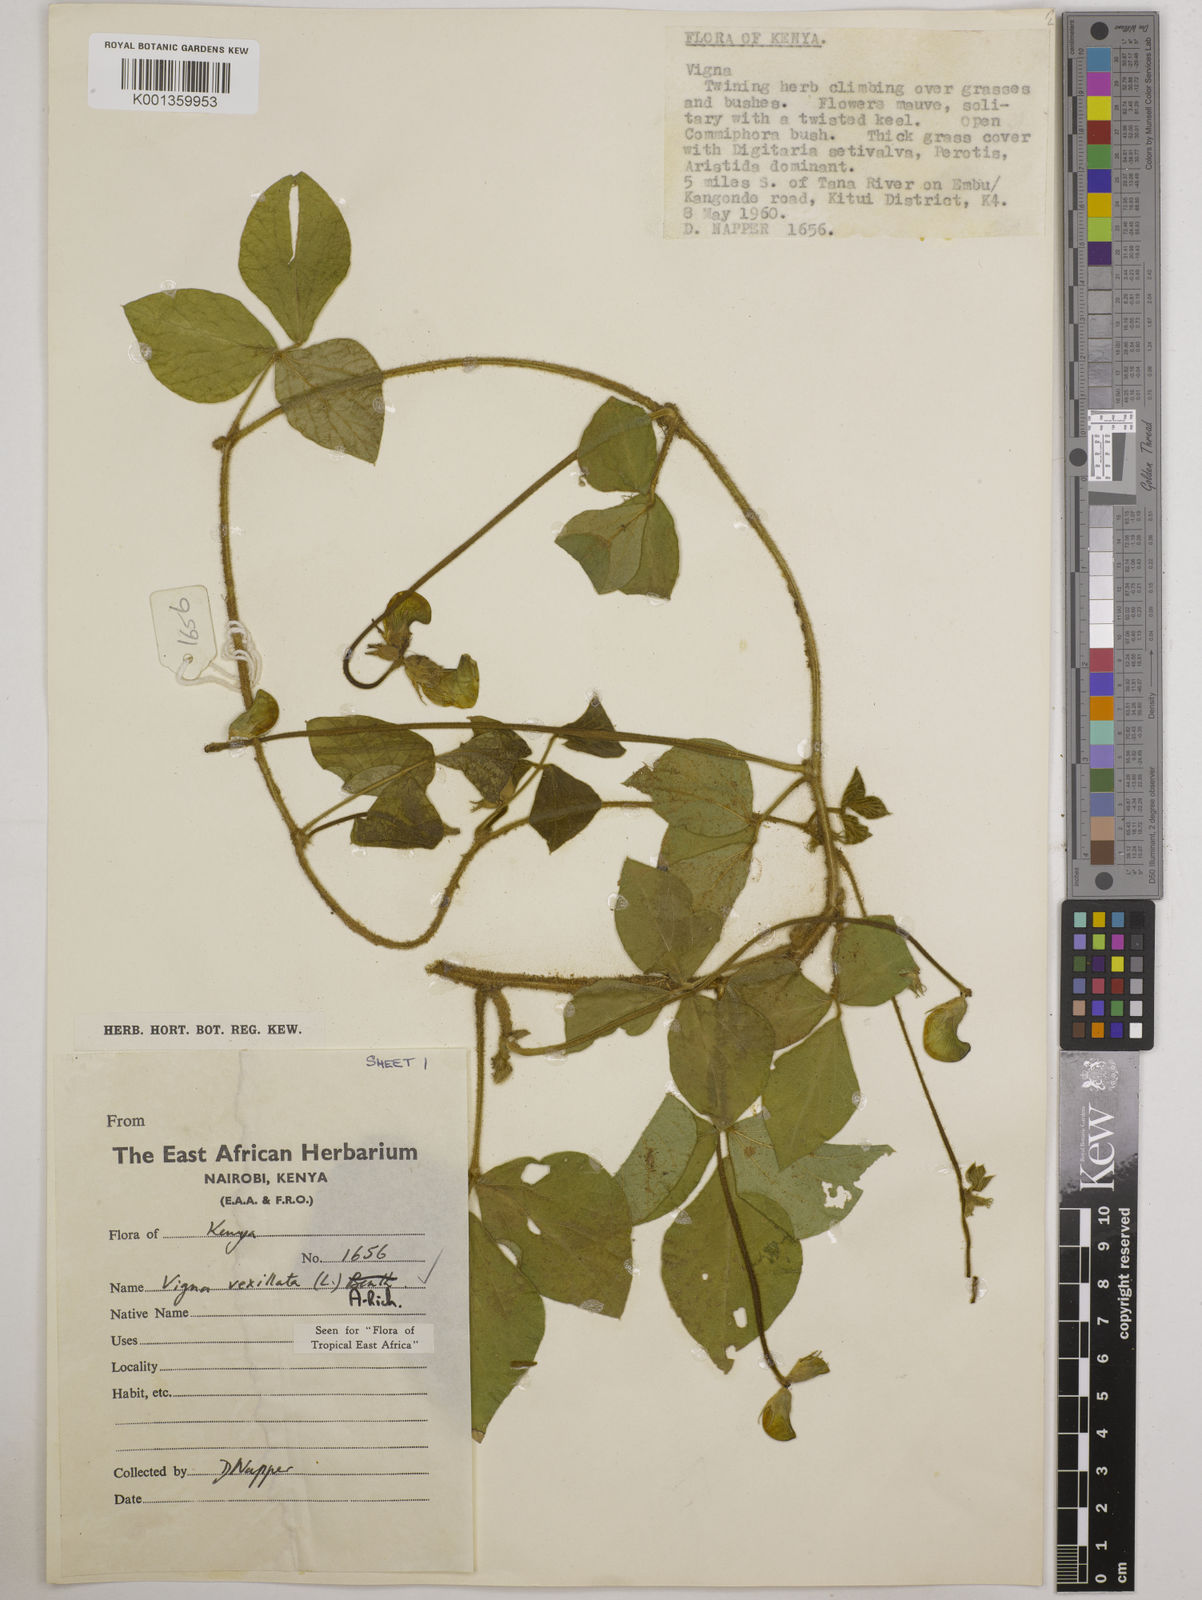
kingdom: Plantae
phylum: Tracheophyta
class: Magnoliopsida
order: Fabales
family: Fabaceae
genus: Vigna
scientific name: Vigna vexillata
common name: Zombi pea
